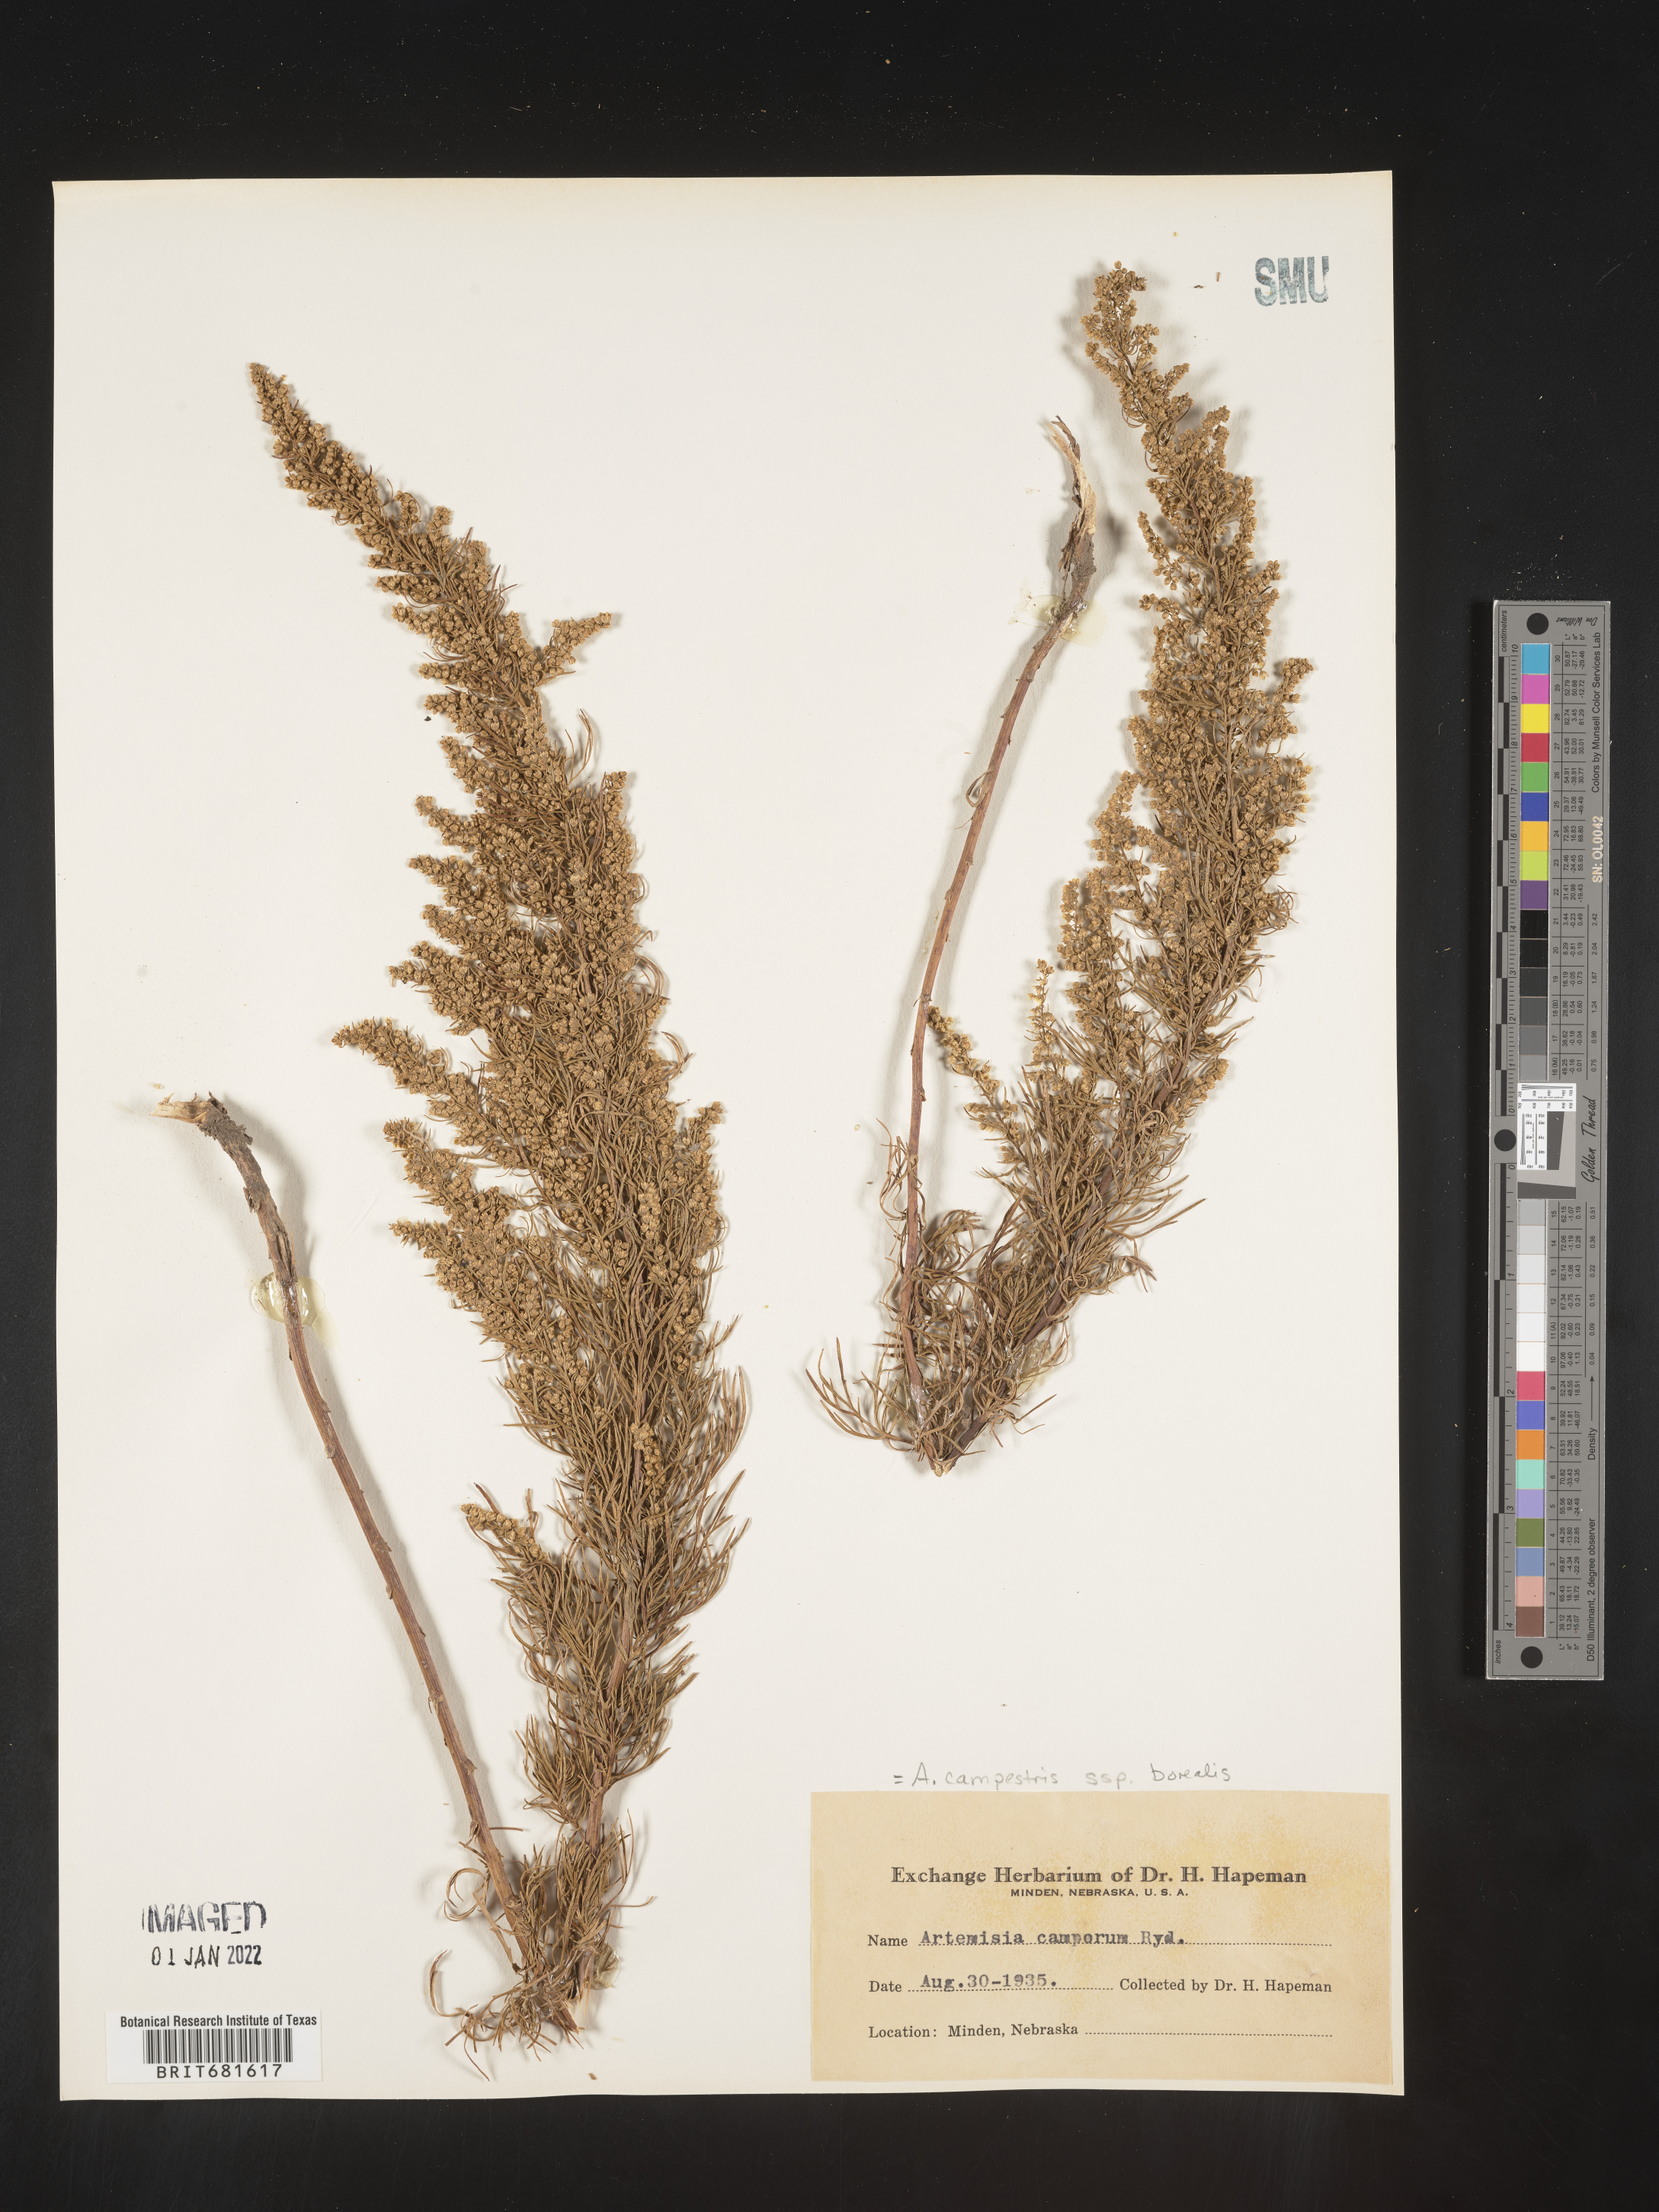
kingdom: Plantae
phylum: Tracheophyta
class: Magnoliopsida
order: Asterales
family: Asteraceae
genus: Artemisia
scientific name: Artemisia campestris
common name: Field wormwood
